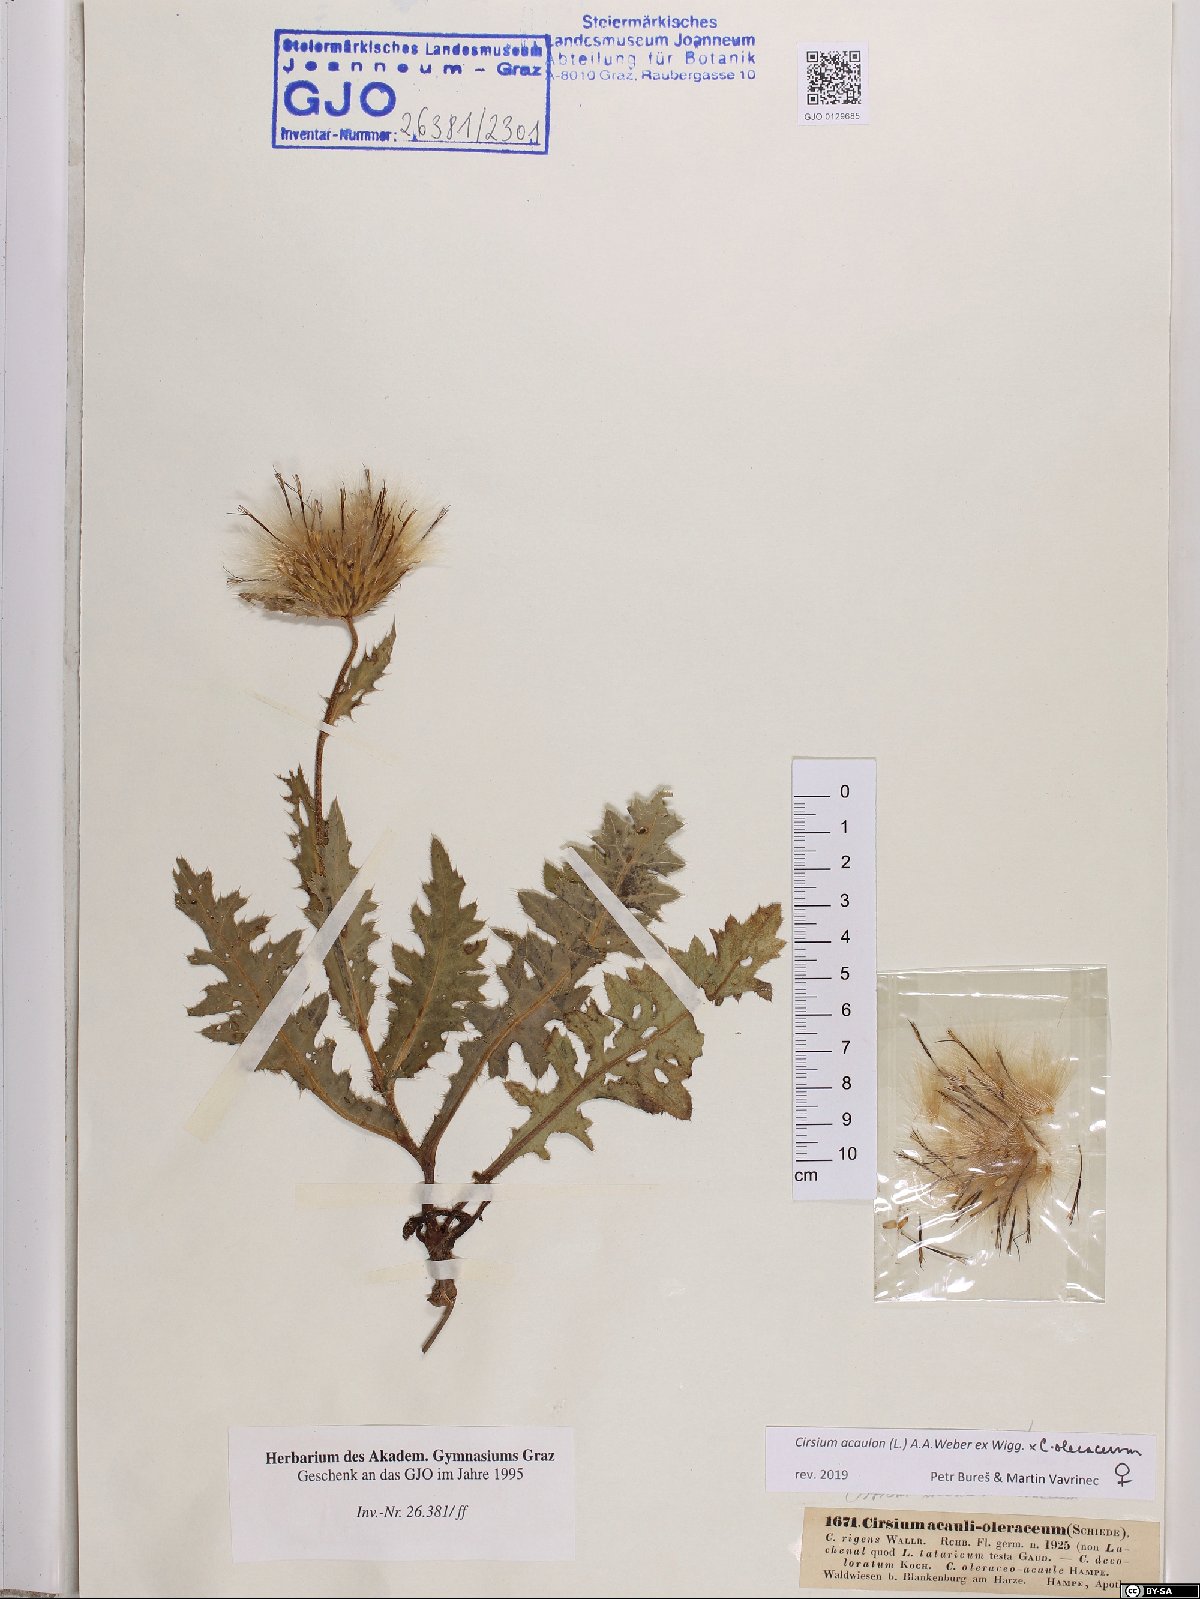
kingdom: Plantae
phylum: Tracheophyta
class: Magnoliopsida
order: Asterales
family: Asteraceae
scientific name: Asteraceae
